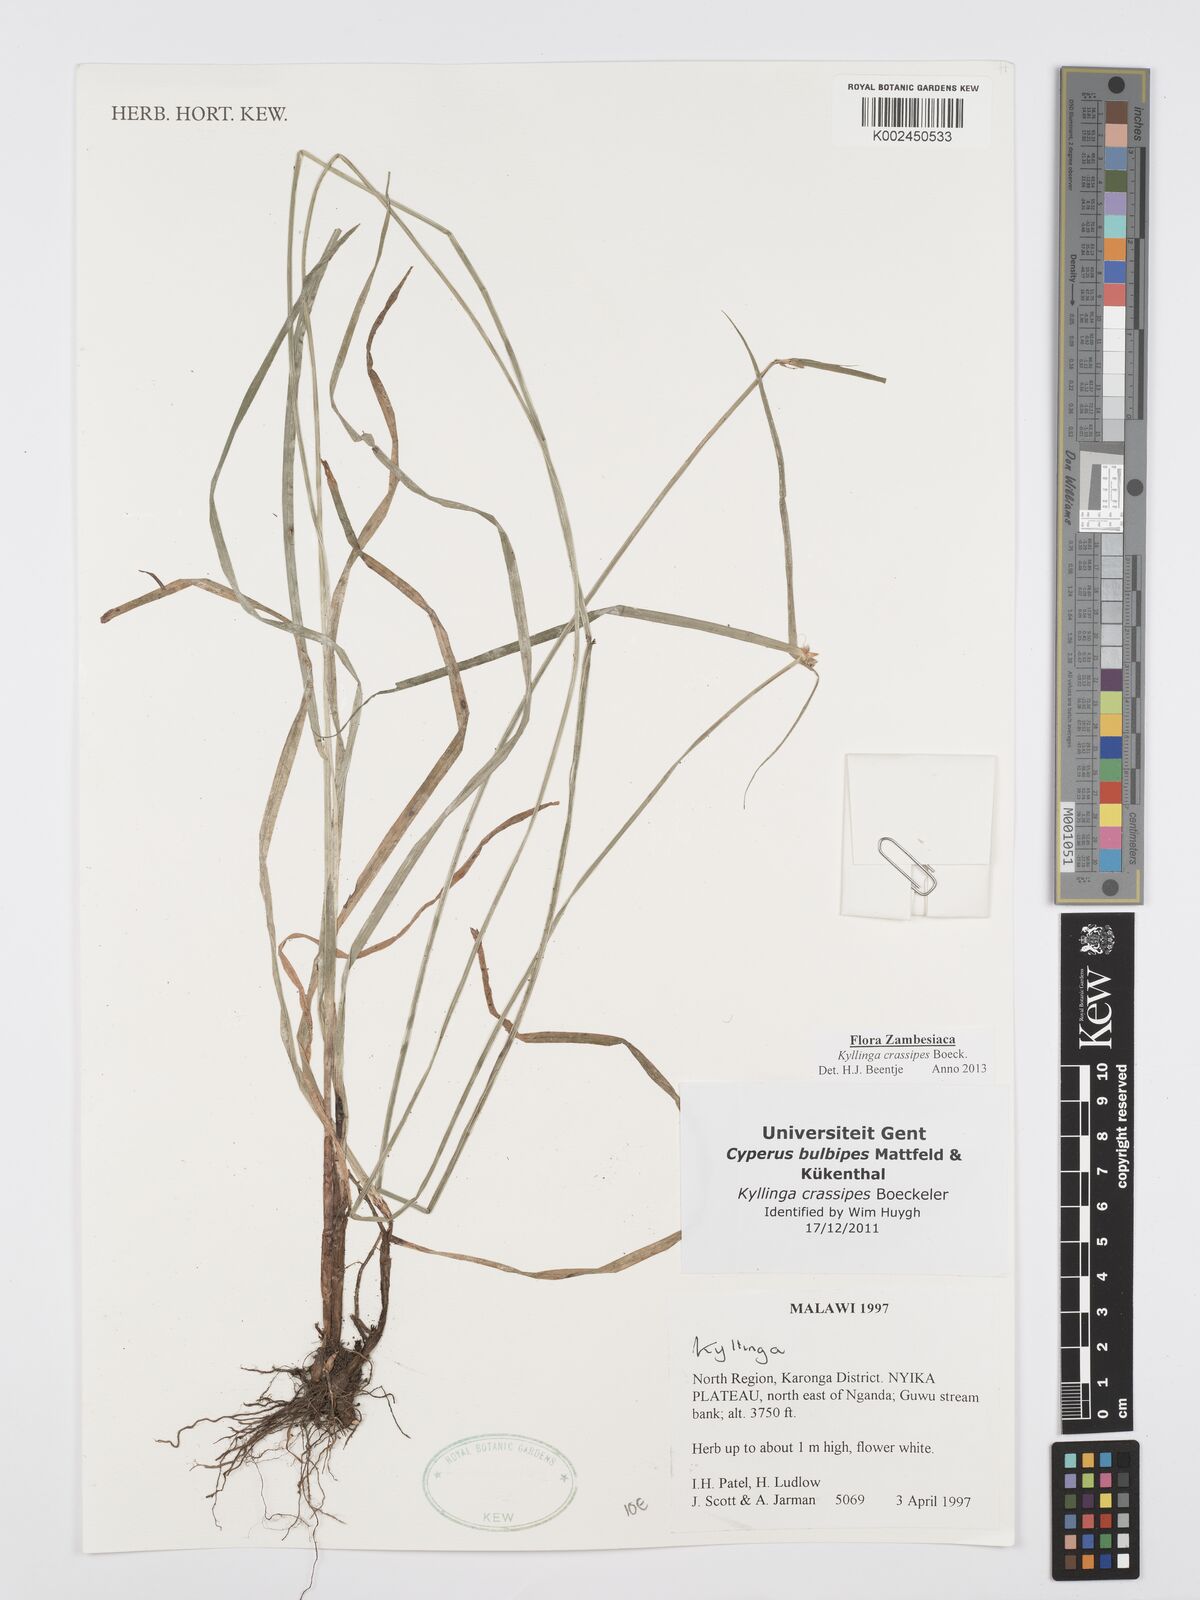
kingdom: Plantae
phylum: Tracheophyta
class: Liliopsida
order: Poales
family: Cyperaceae
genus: Cyperus
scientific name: Cyperus crassipes
